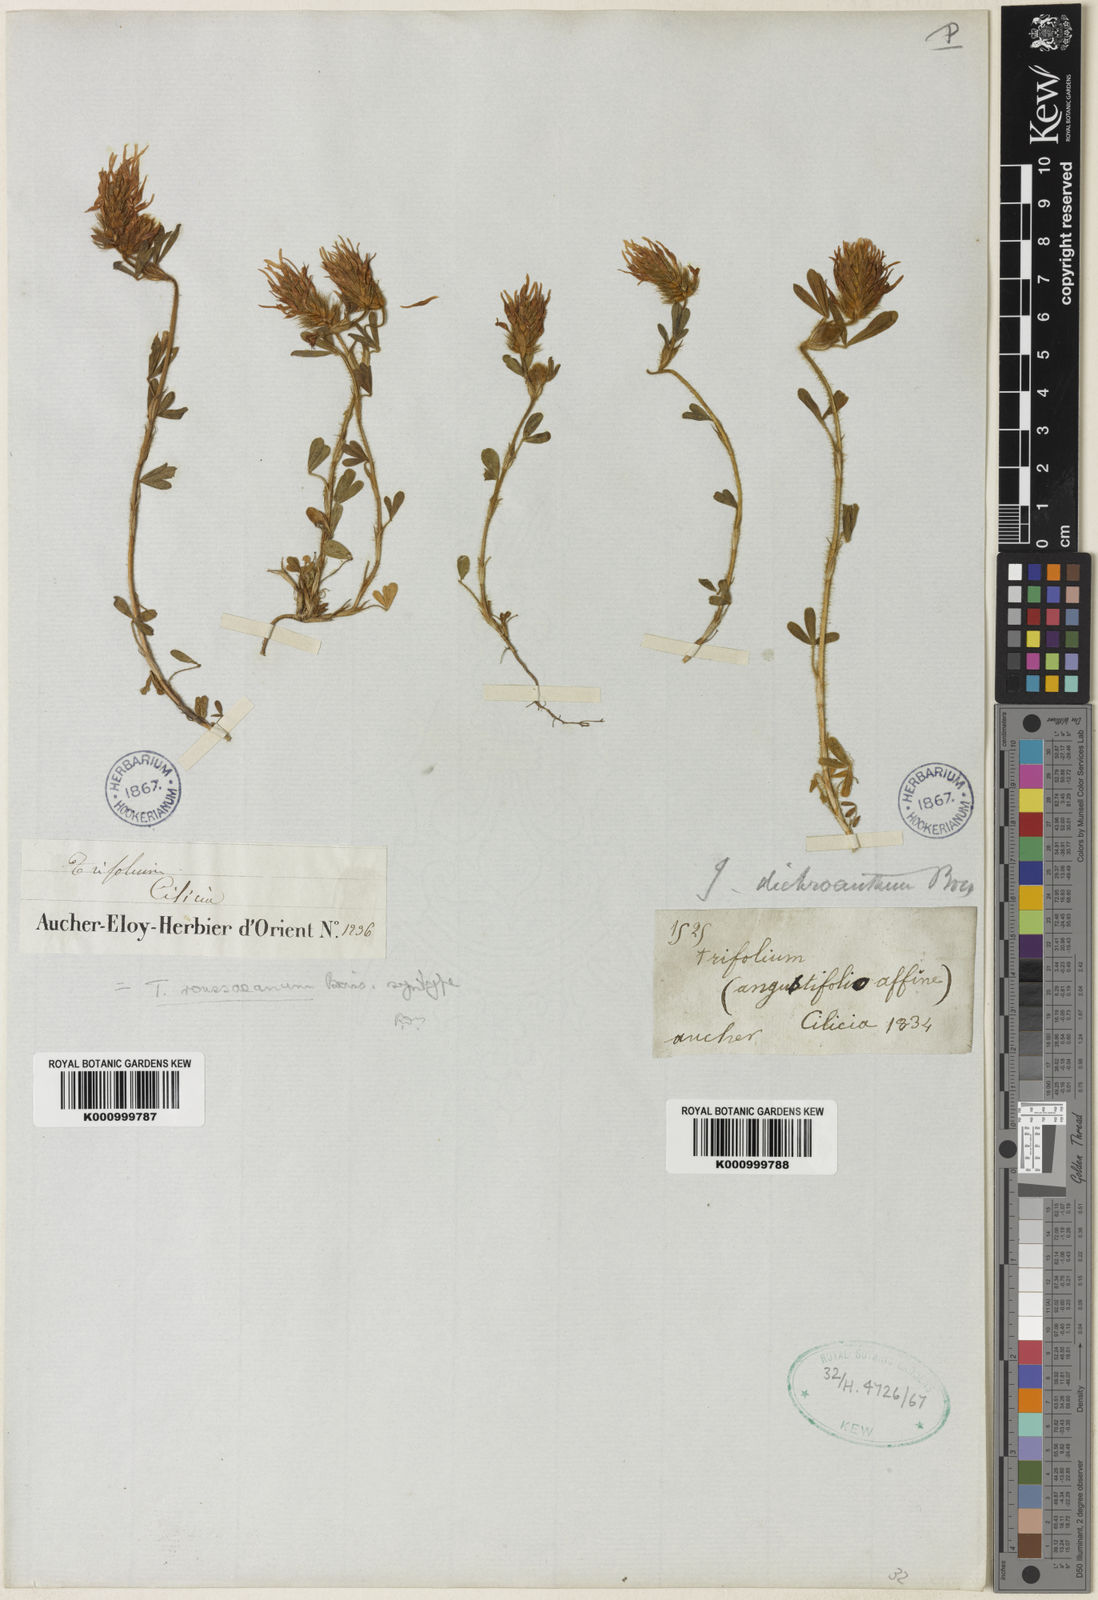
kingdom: Plantae
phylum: Tracheophyta
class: Magnoliopsida
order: Fabales
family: Fabaceae
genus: Trifolium
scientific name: Trifolium dichroanthum
